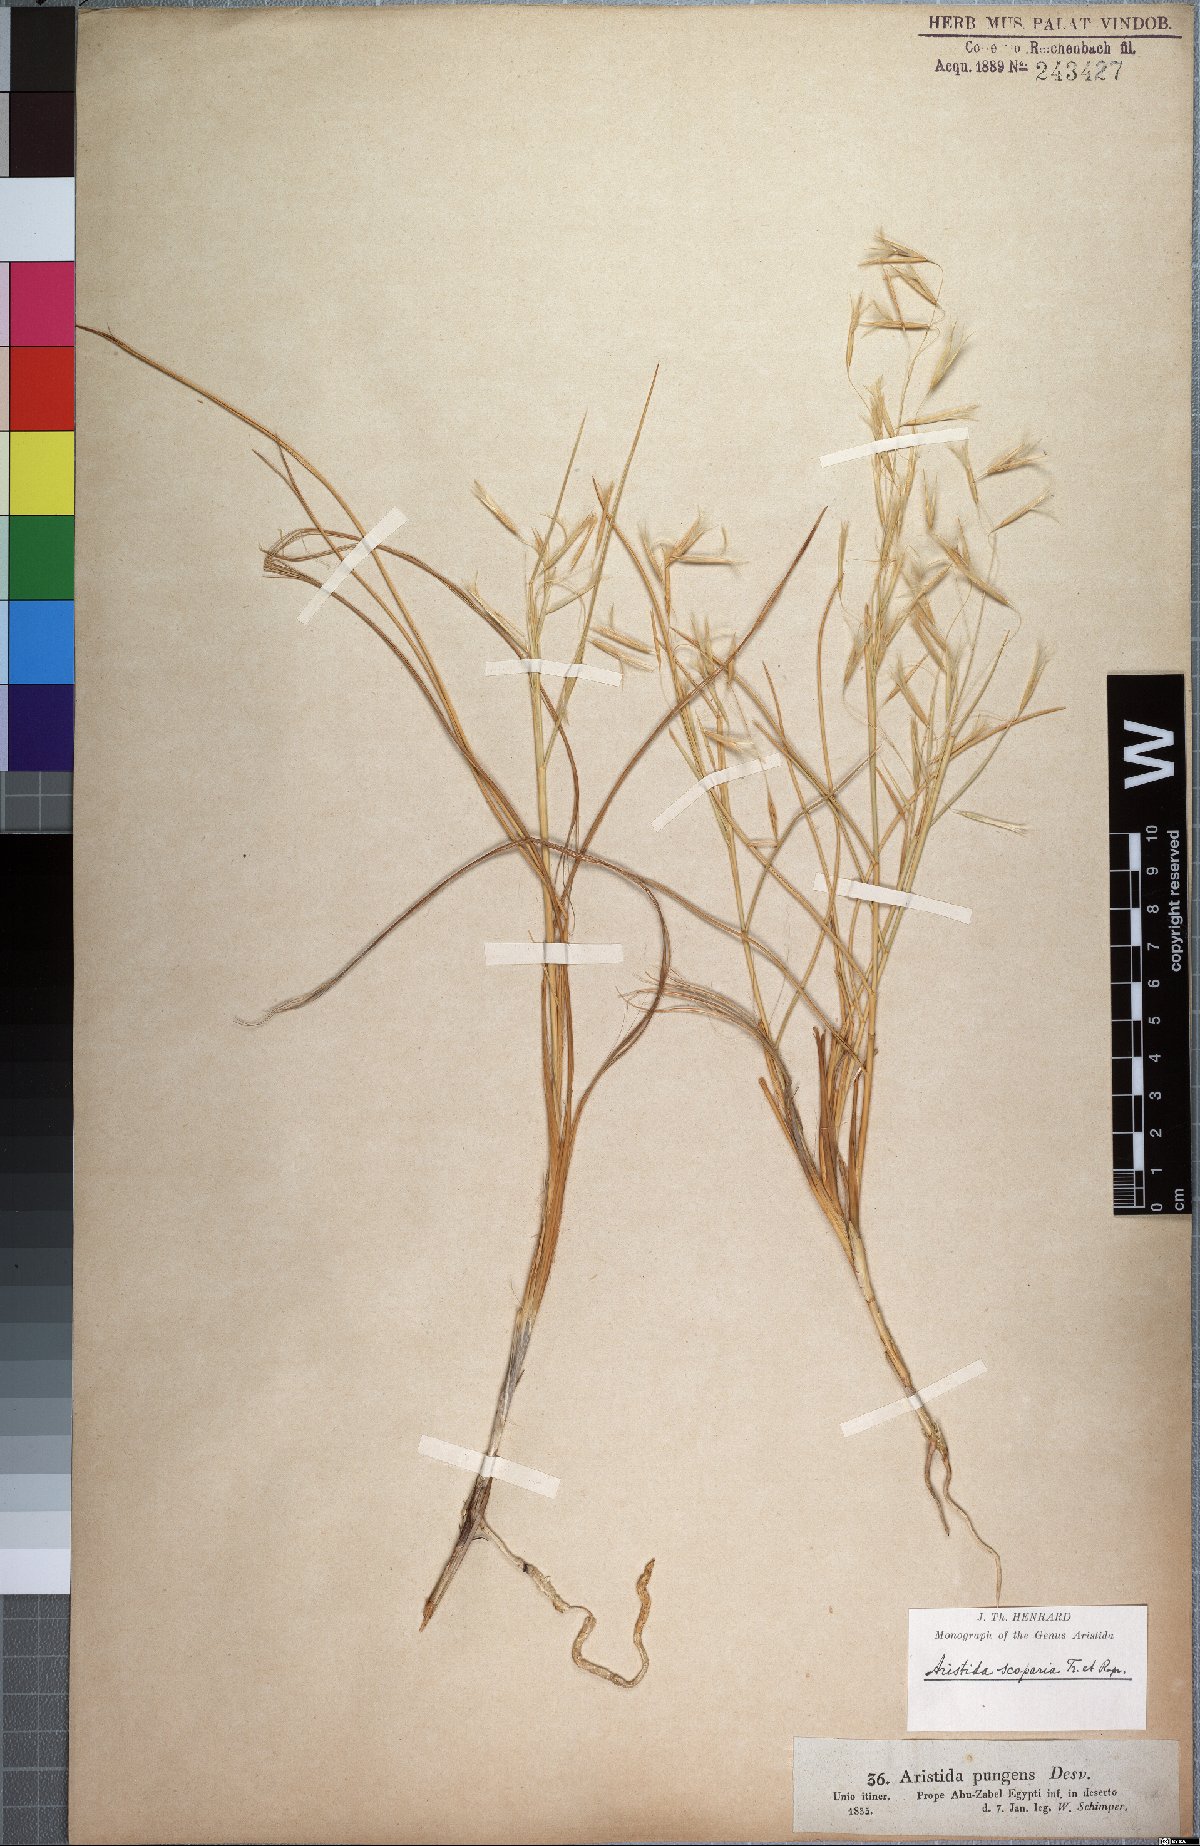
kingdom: Plantae
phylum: Tracheophyta
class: Liliopsida
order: Poales
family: Poaceae
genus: Stipagrostis
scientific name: Stipagrostis scoparia
